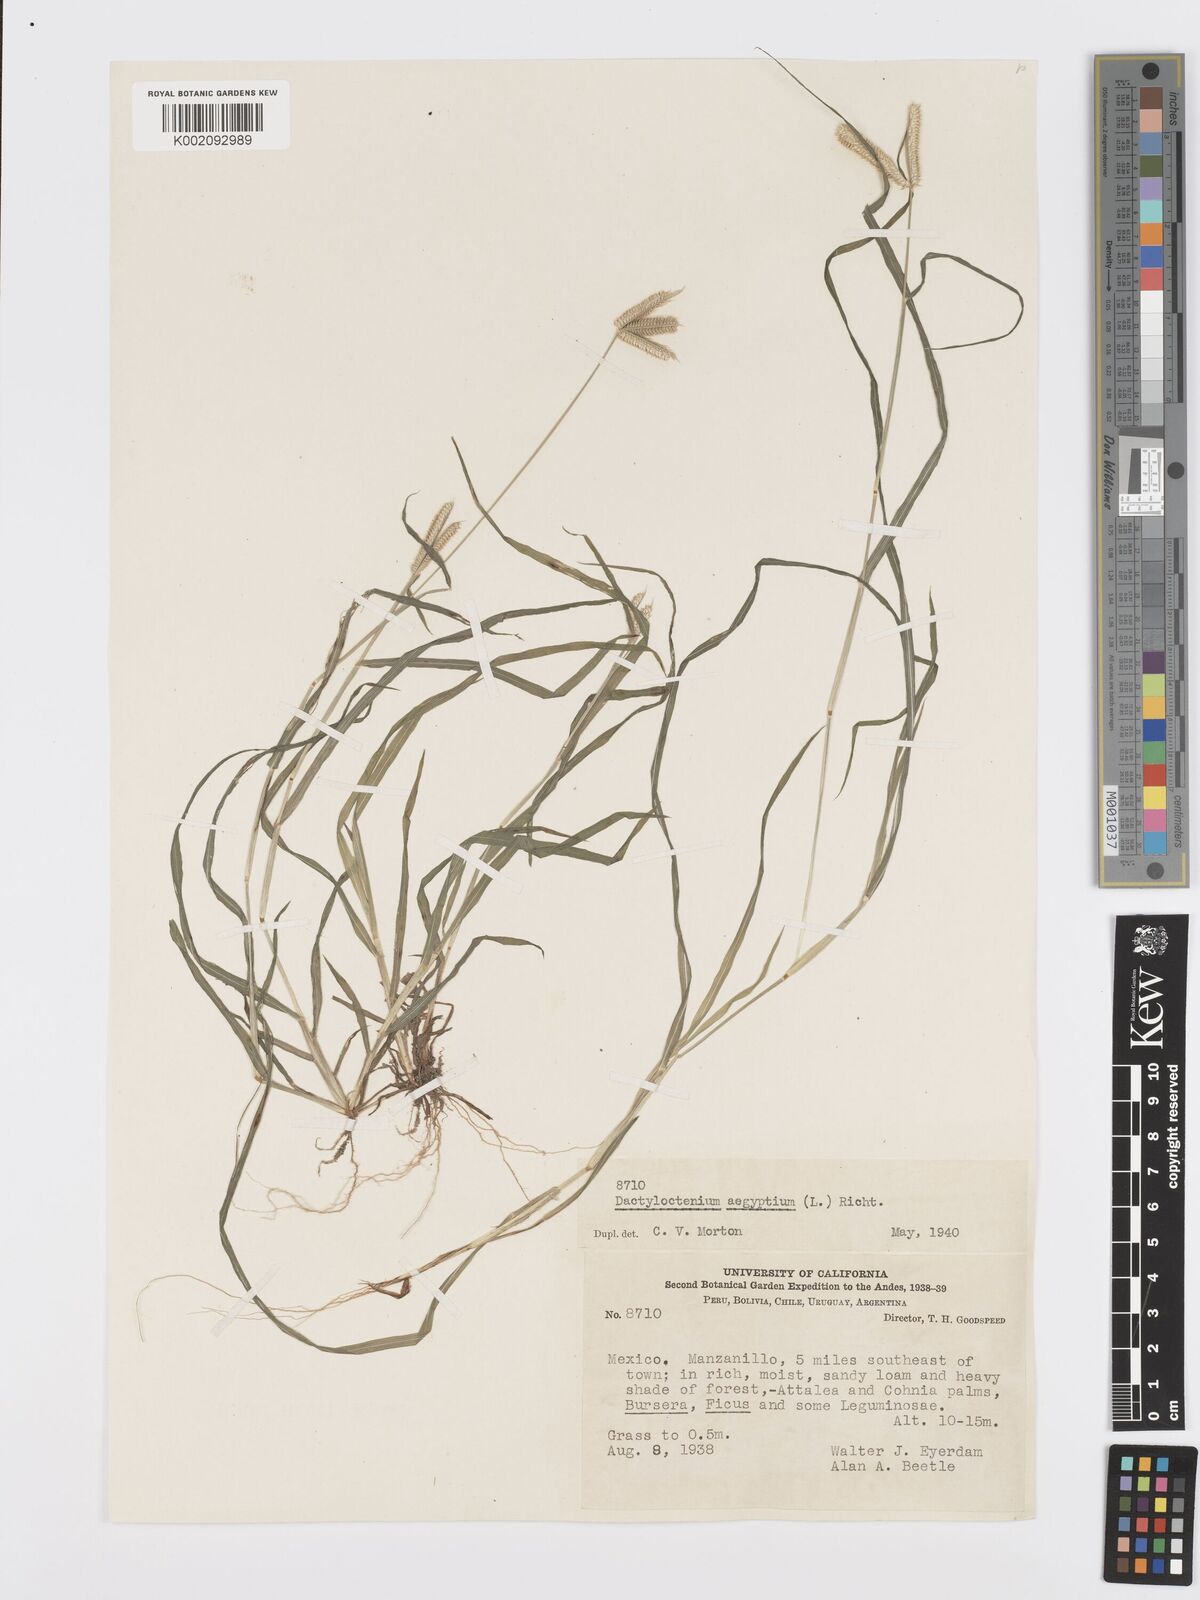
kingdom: Plantae
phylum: Tracheophyta
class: Liliopsida
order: Poales
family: Poaceae
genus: Dactyloctenium
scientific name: Dactyloctenium aegyptium
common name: Egyptian grass
